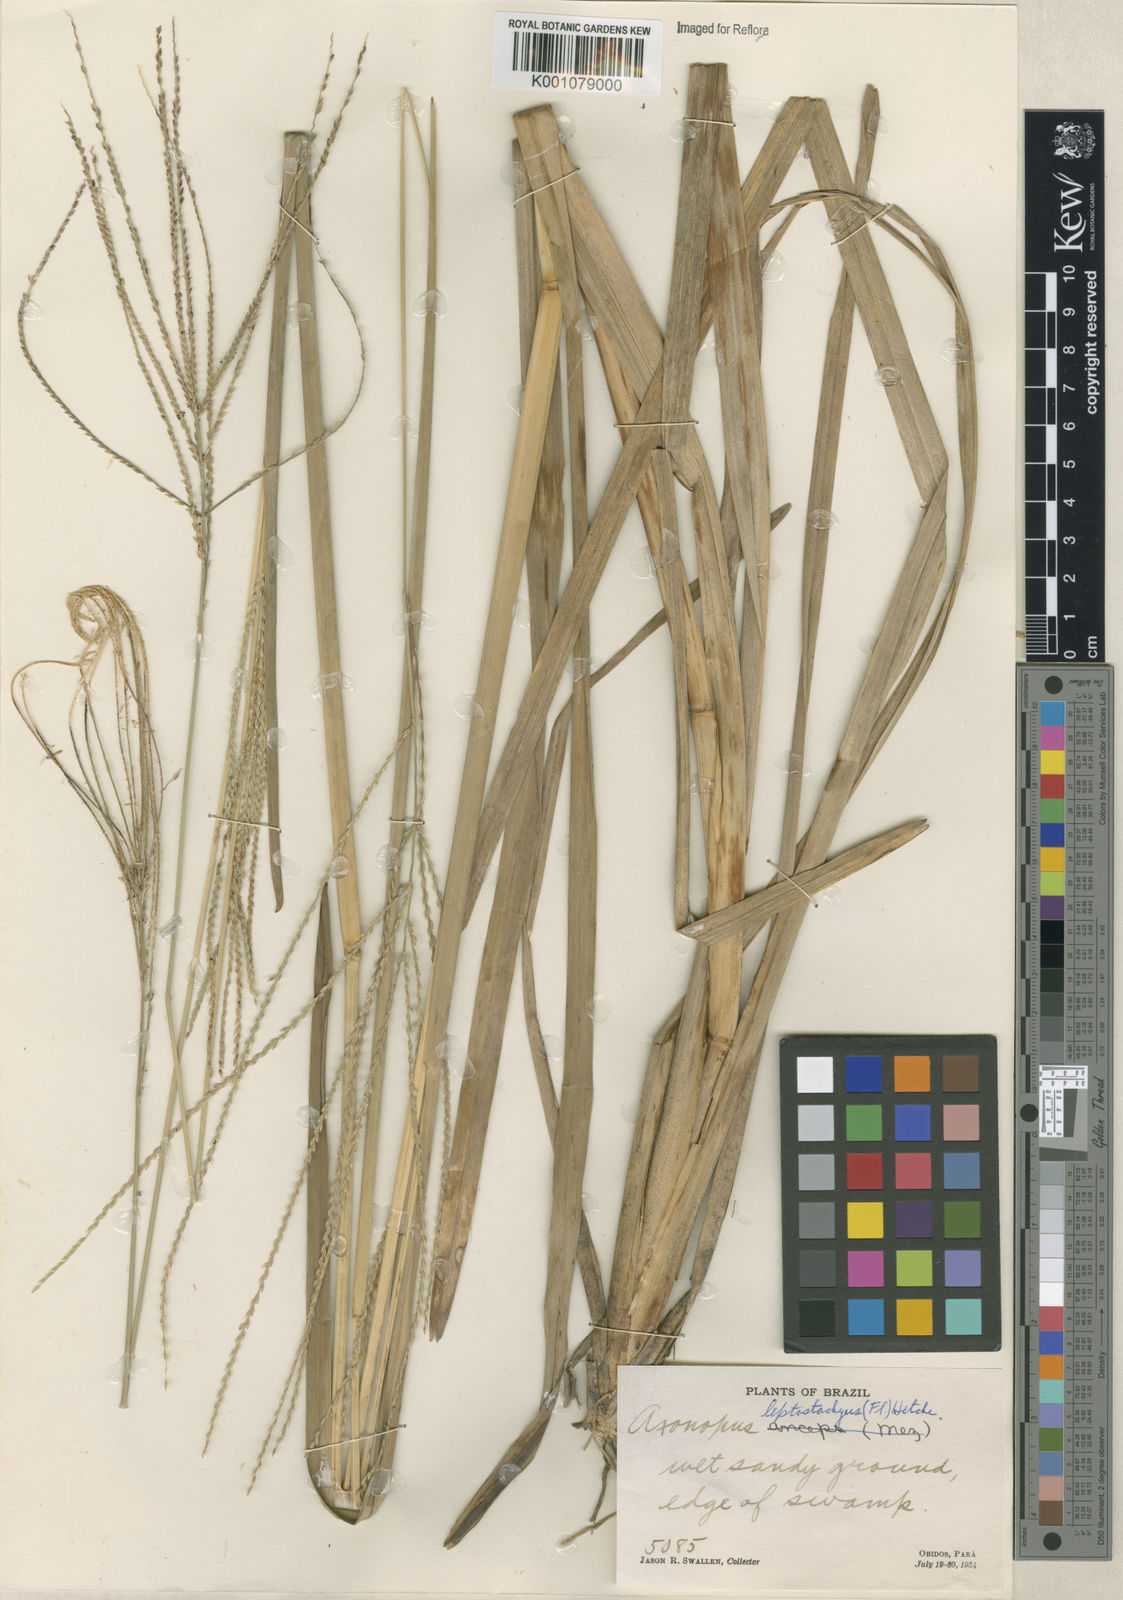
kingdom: Plantae
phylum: Tracheophyta
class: Liliopsida
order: Poales
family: Poaceae
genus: Axonopus
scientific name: Axonopus
